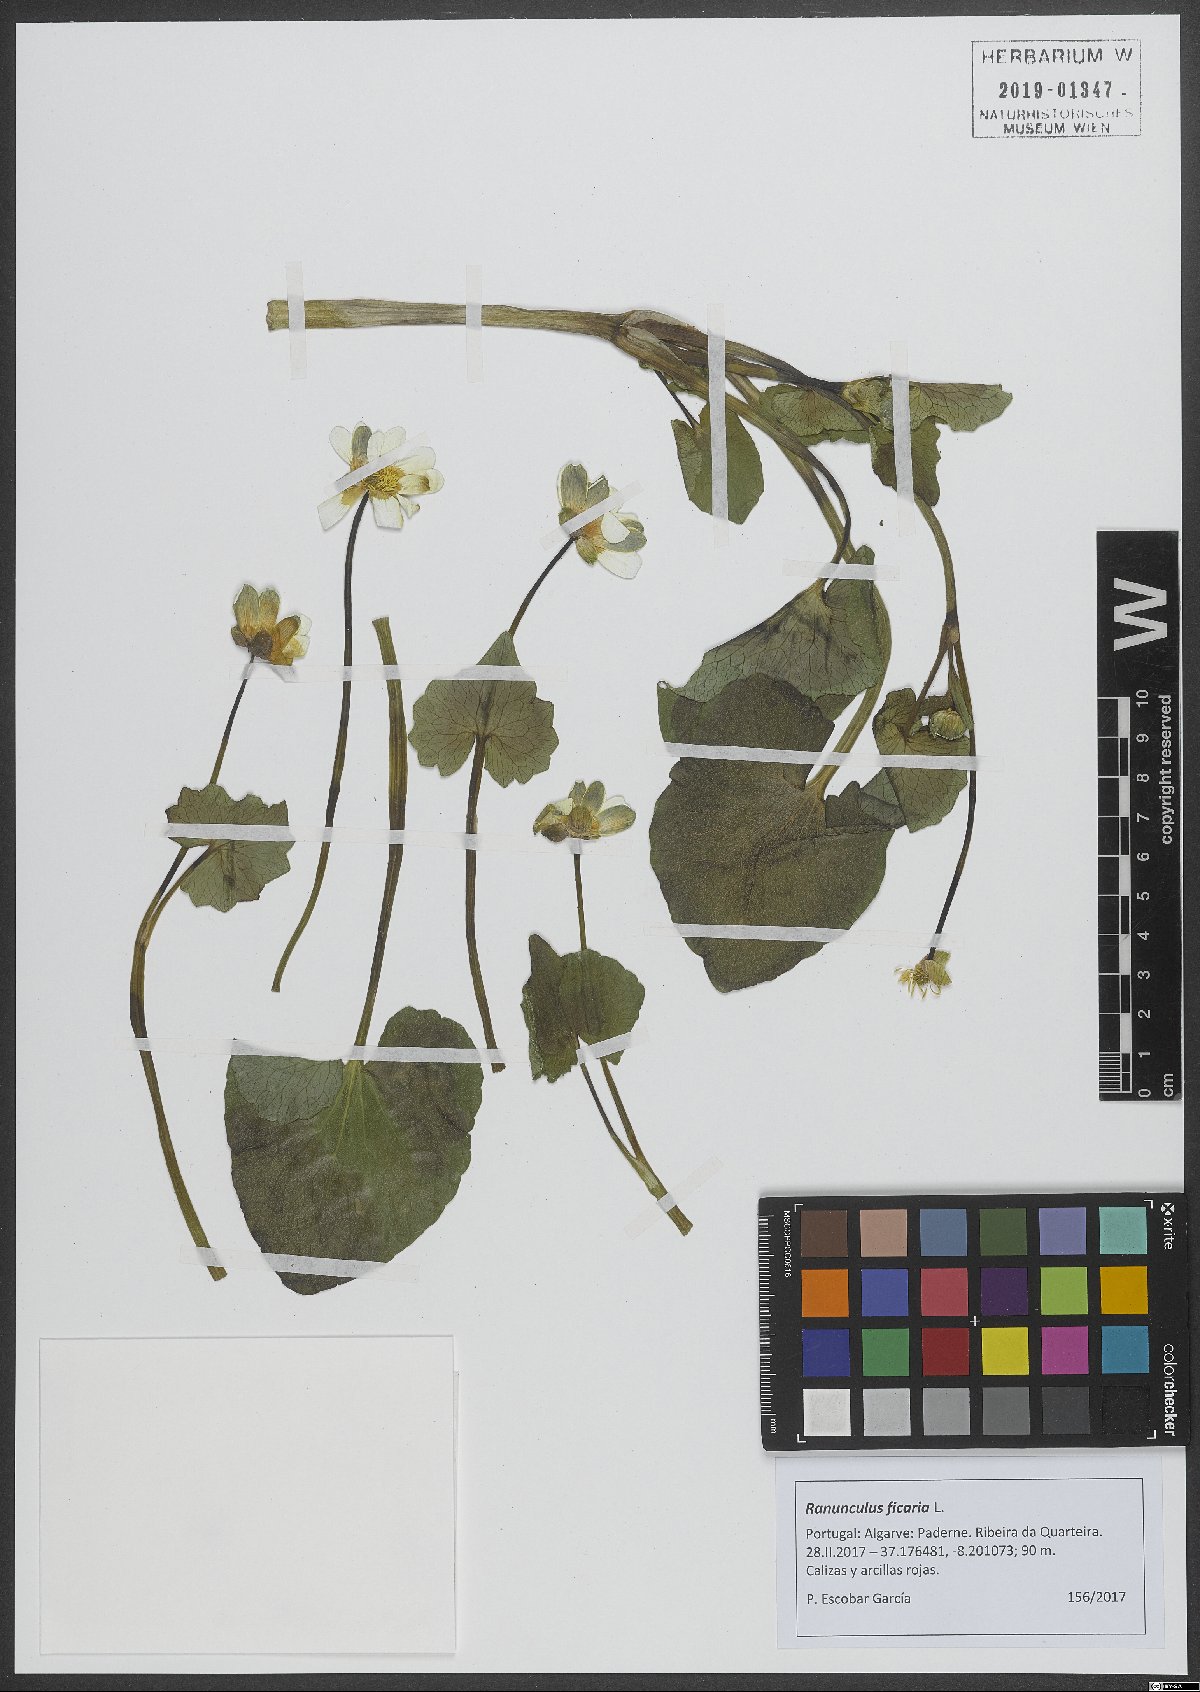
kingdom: Plantae
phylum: Tracheophyta
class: Magnoliopsida
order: Ranunculales
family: Ranunculaceae
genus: Ficaria
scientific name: Ficaria verna
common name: Lesser celandine
